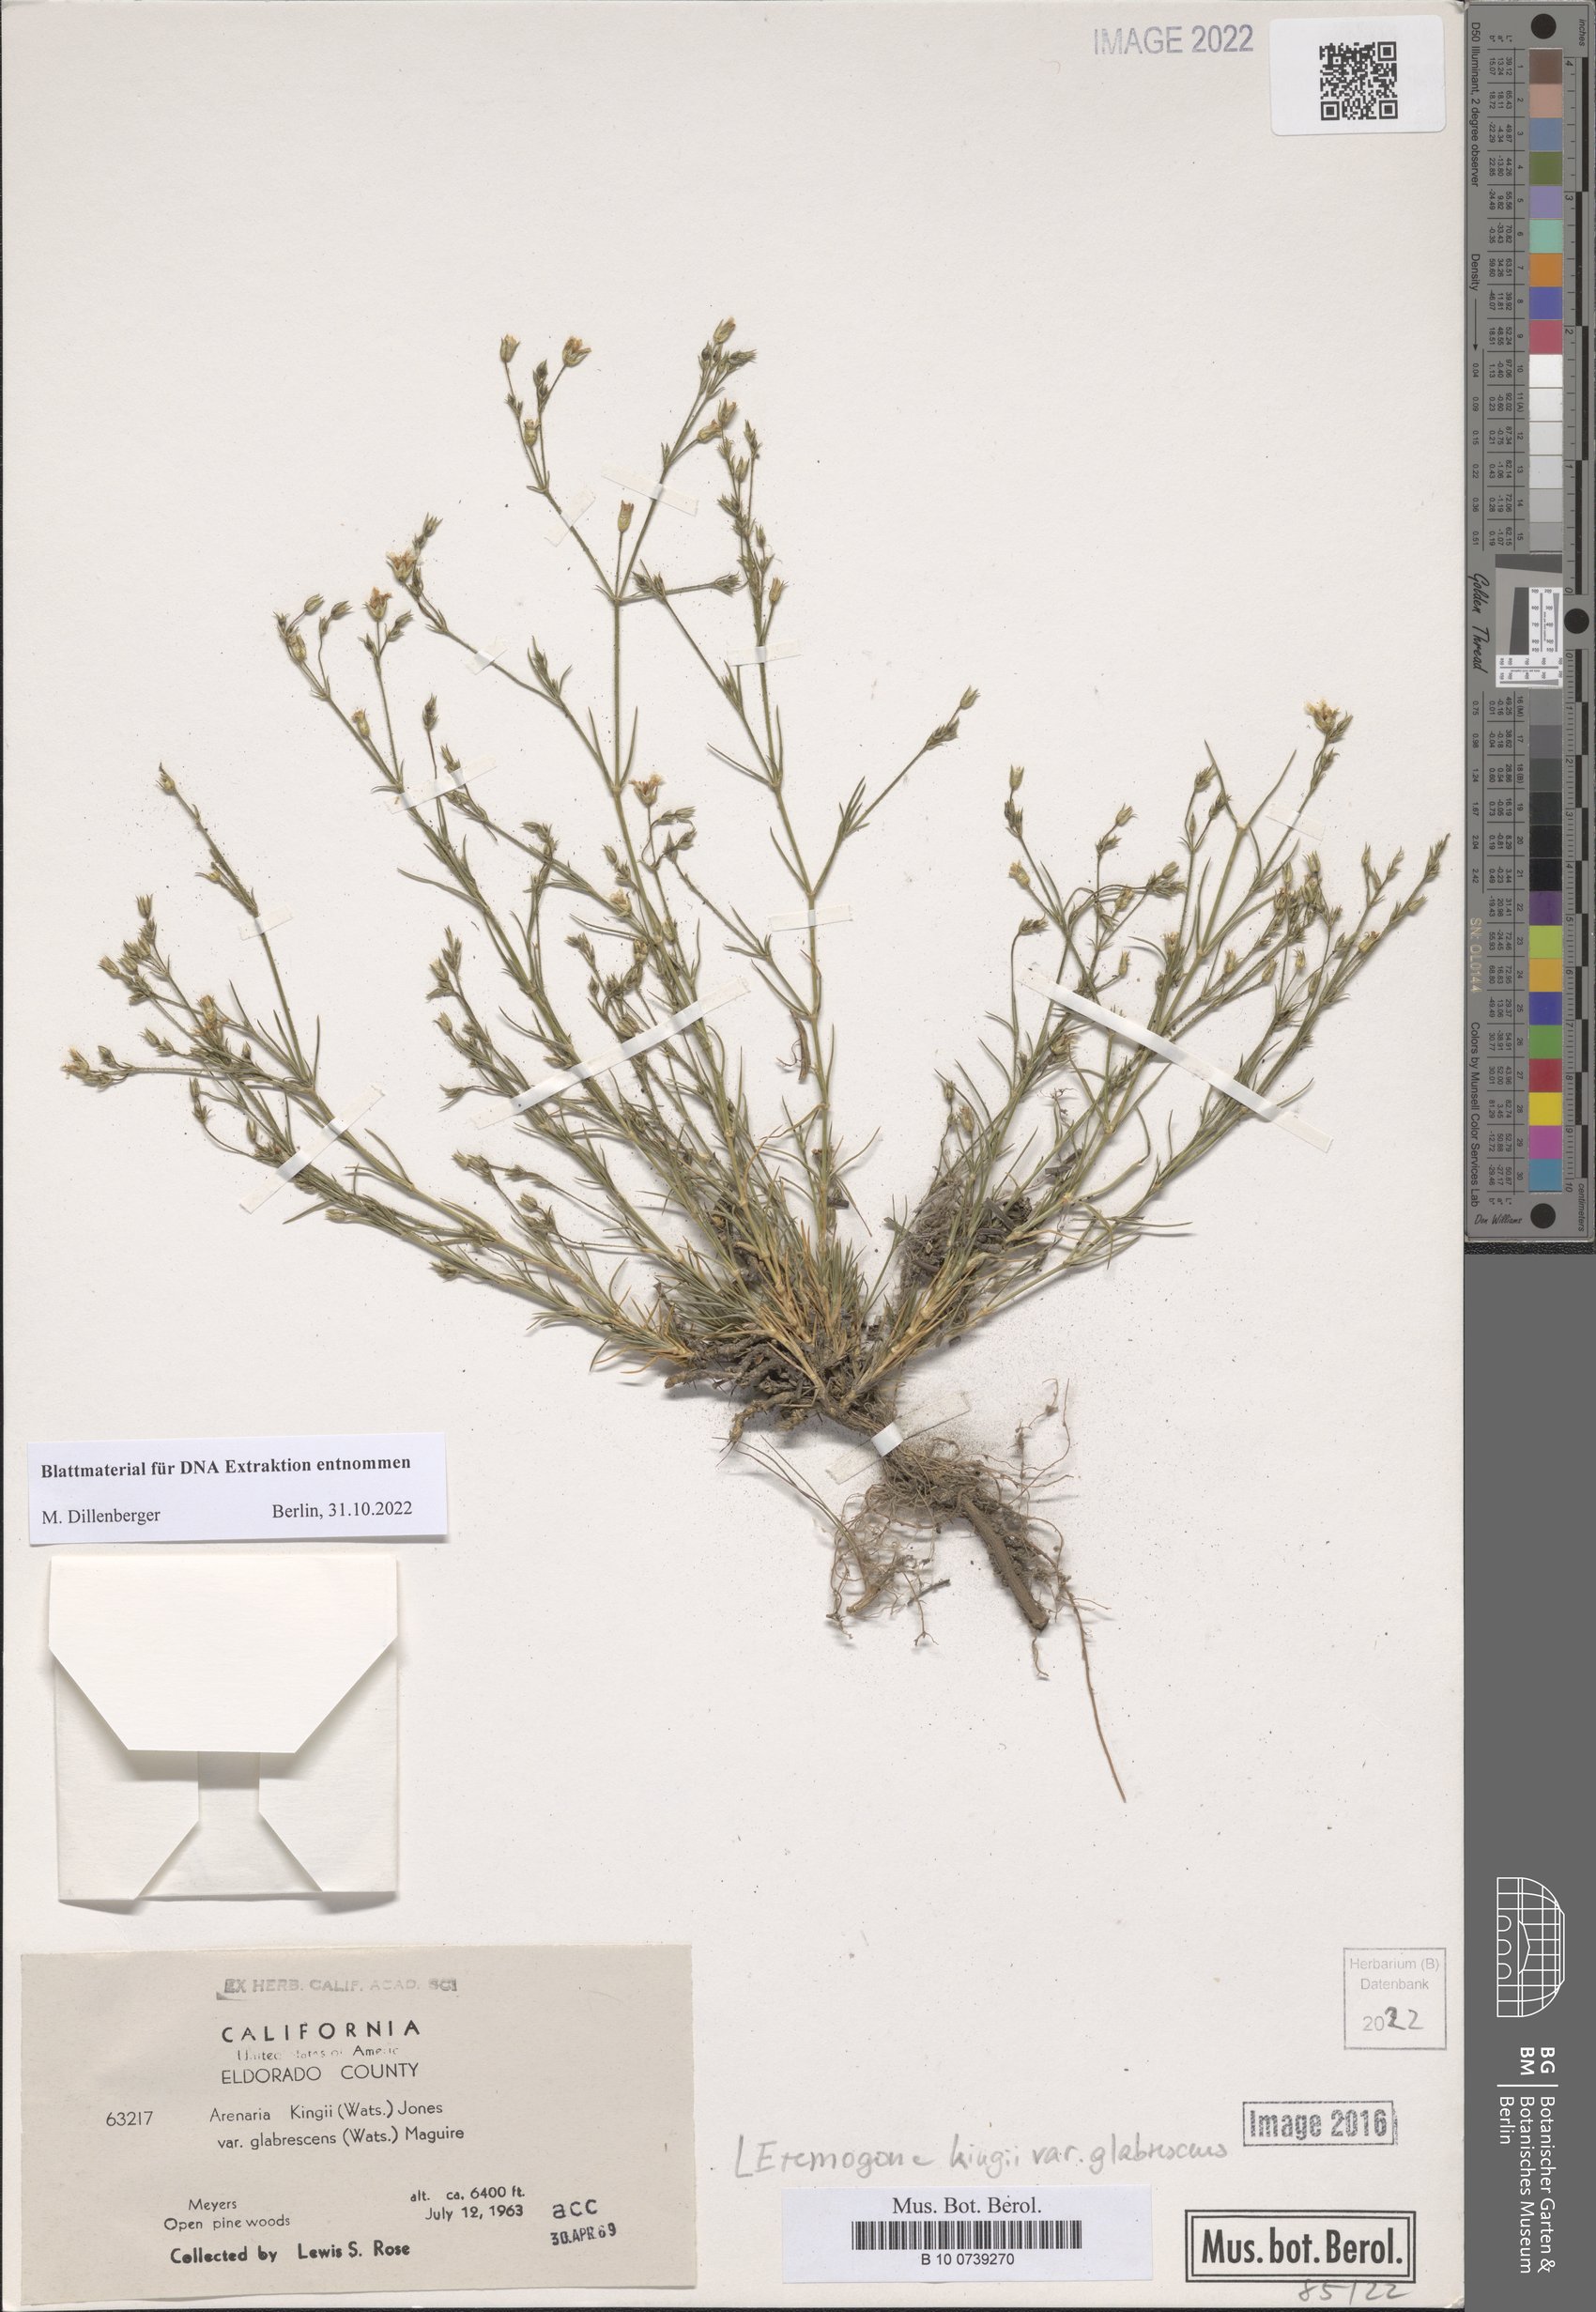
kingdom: Plantae
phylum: Tracheophyta
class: Magnoliopsida
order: Caryophyllales
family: Caryophyllaceae
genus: Eremogone
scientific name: Eremogone kingii
